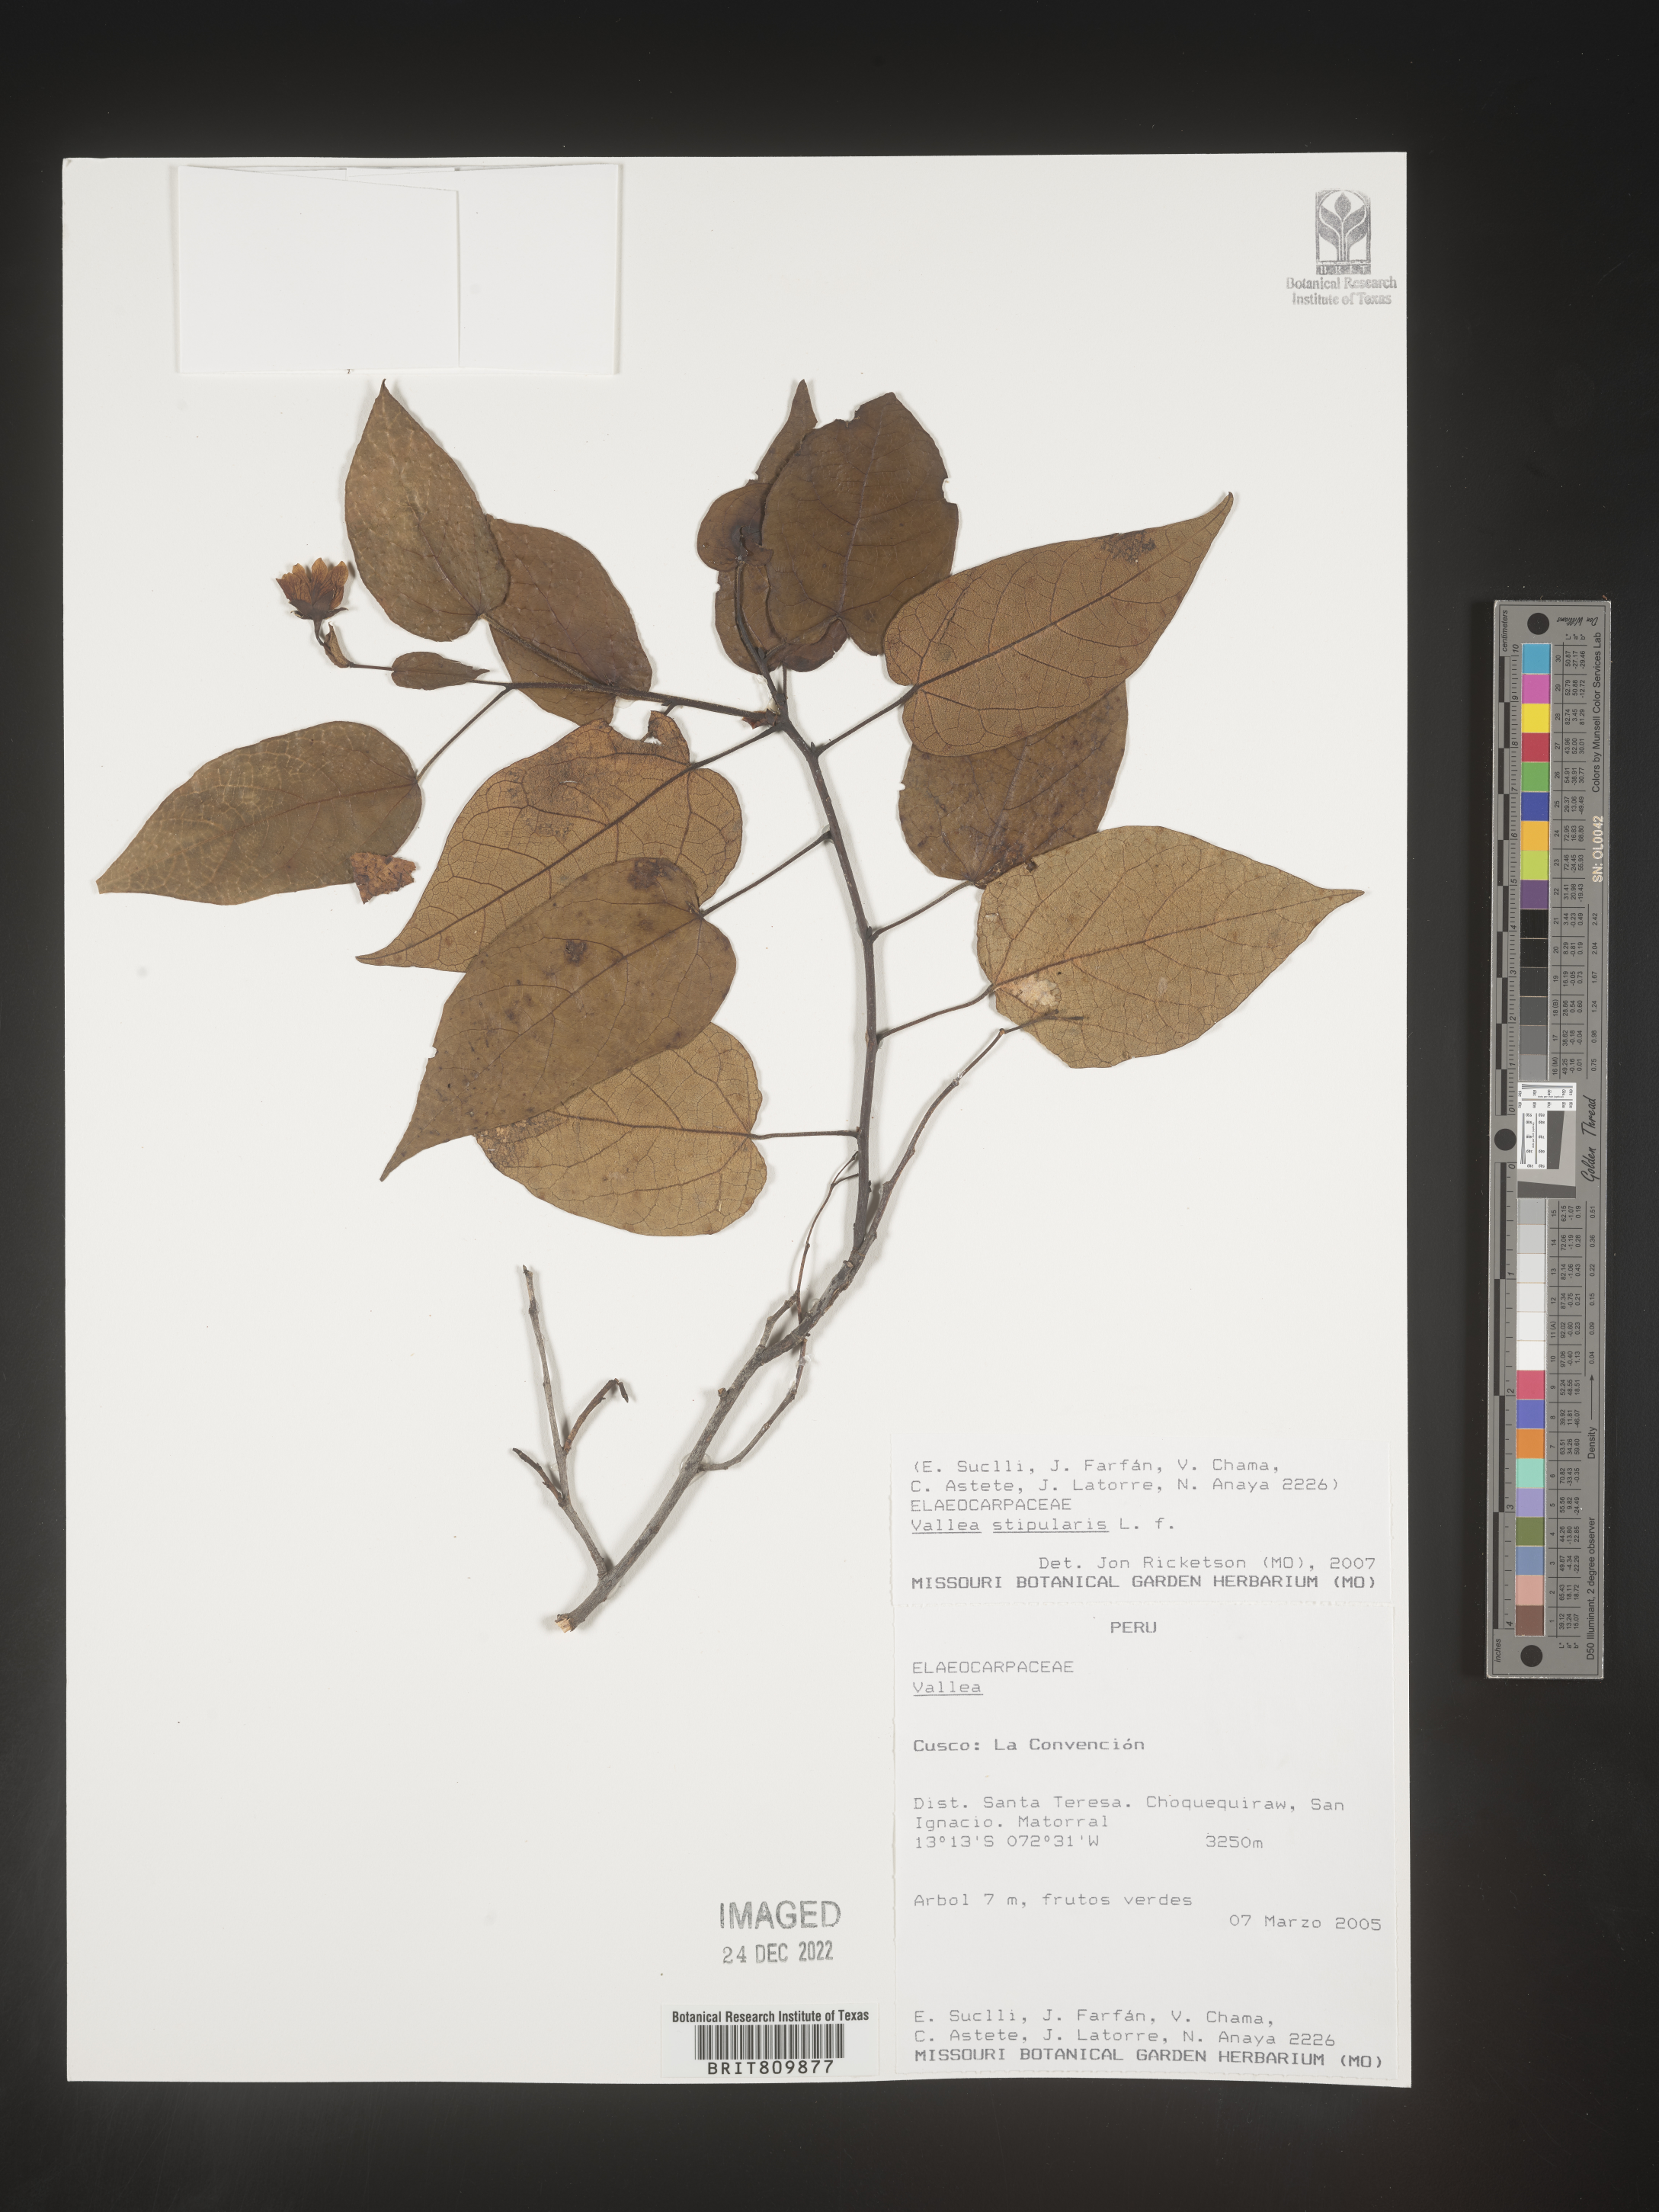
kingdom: Plantae
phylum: Tracheophyta
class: Magnoliopsida
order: Oxalidales
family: Elaeocarpaceae
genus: Vallea
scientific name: Vallea
